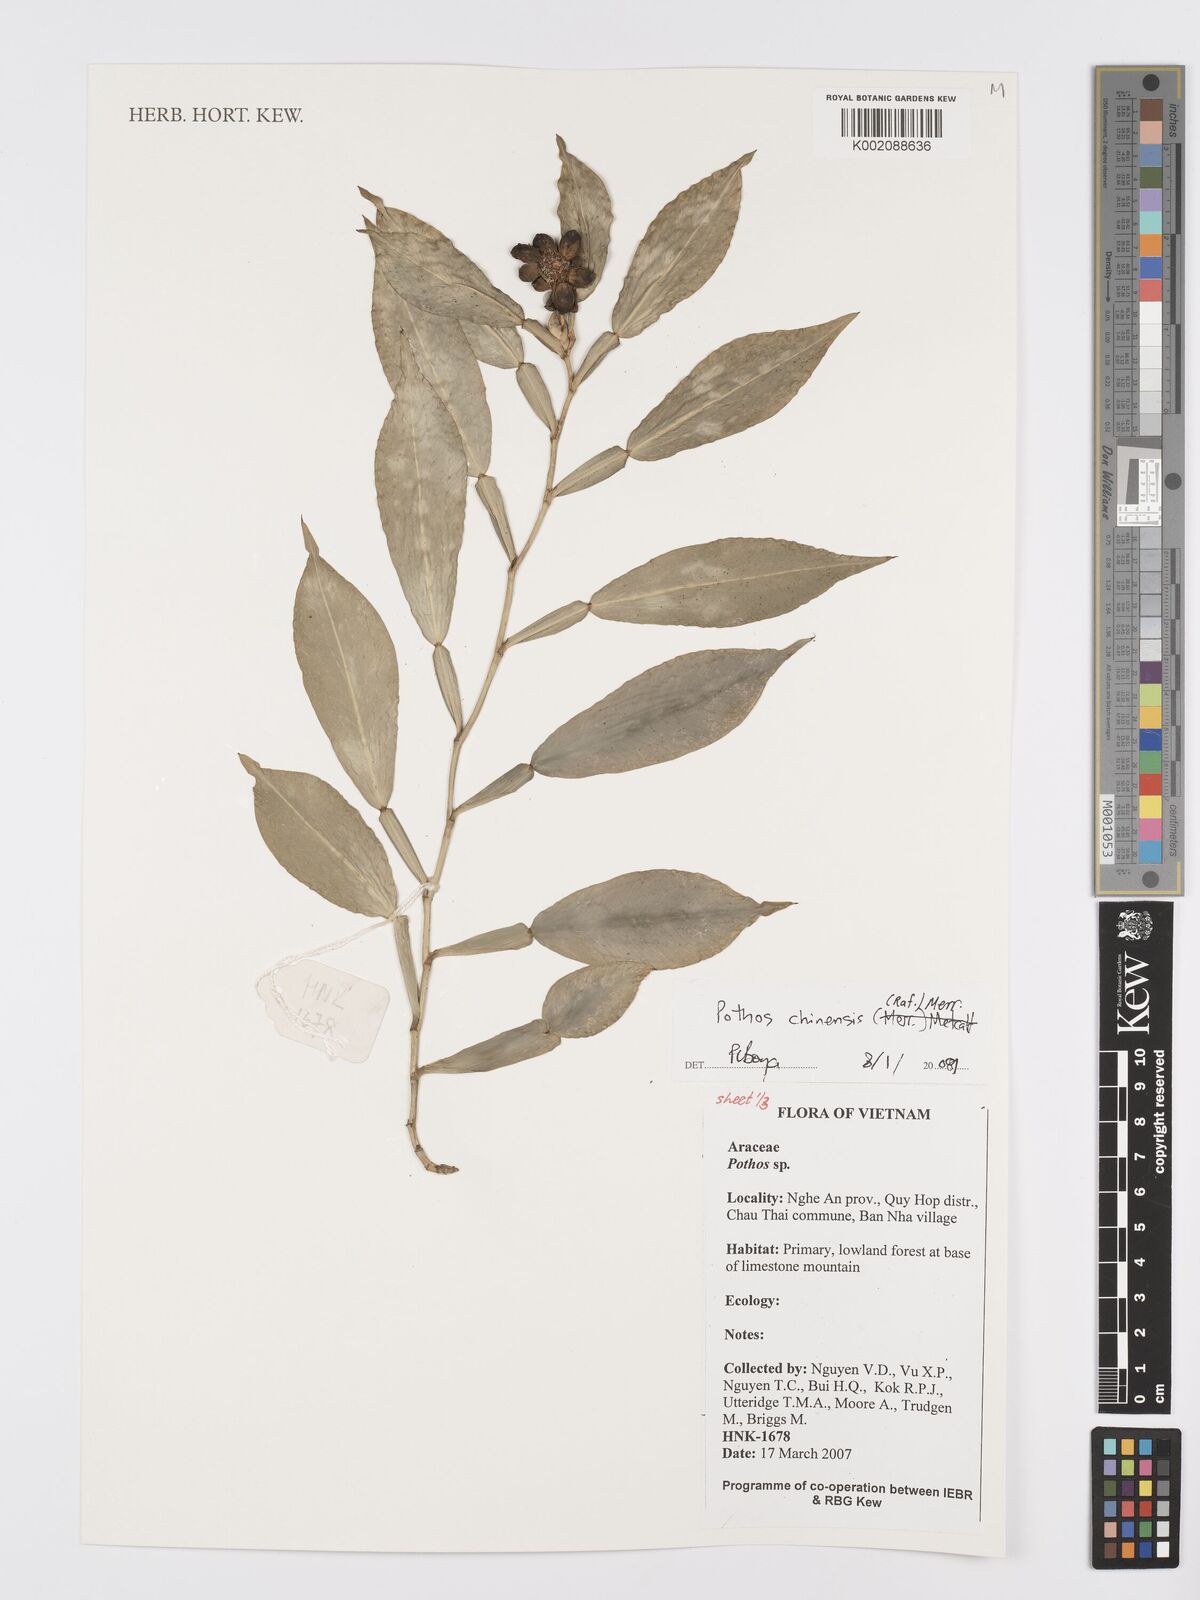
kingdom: Plantae
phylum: Tracheophyta
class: Liliopsida
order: Alismatales
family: Araceae
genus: Pothos
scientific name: Pothos chinensis
